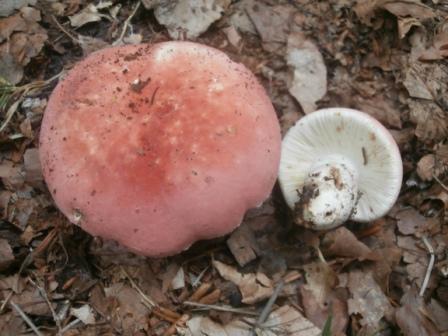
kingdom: Fungi
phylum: Basidiomycota
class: Agaricomycetes
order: Russulales
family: Russulaceae
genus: Russula
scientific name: Russula rosea
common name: fastkødet skørhat
